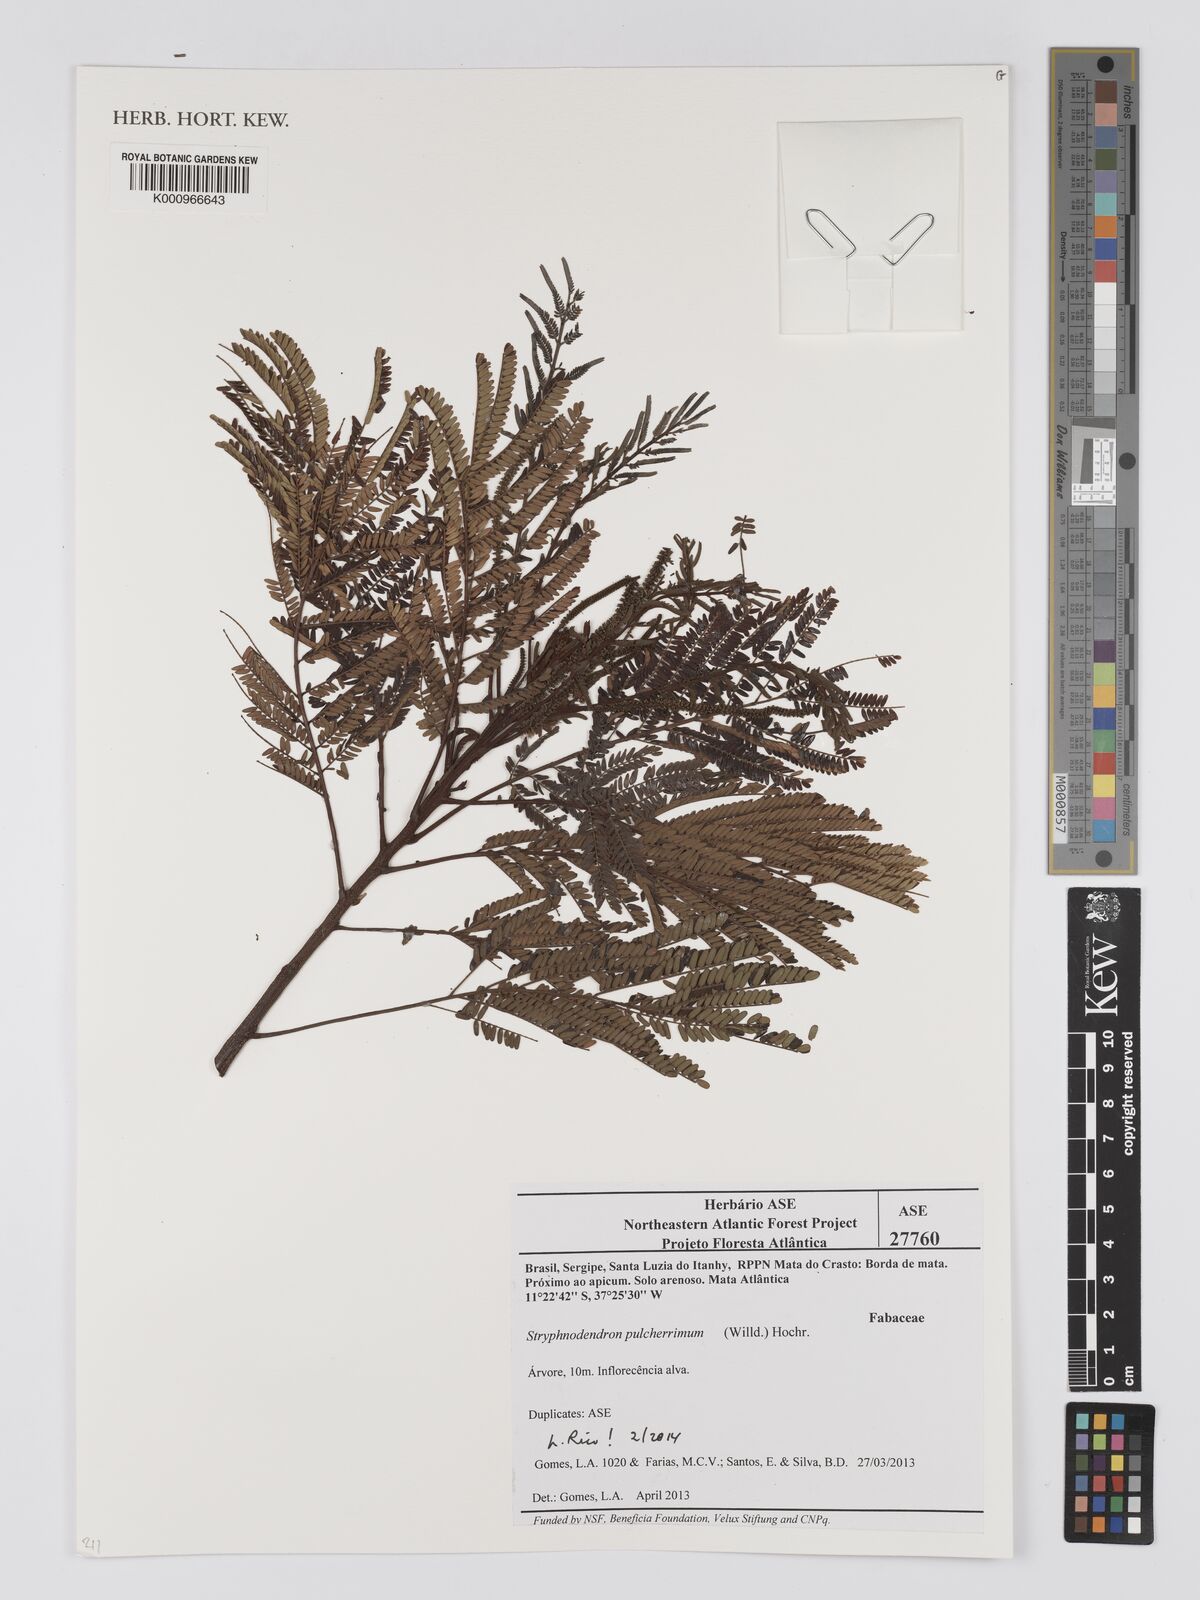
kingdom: Plantae
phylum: Tracheophyta
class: Magnoliopsida
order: Fabales
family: Fabaceae
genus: Stryphnodendron
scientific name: Stryphnodendron pulcherrimum
